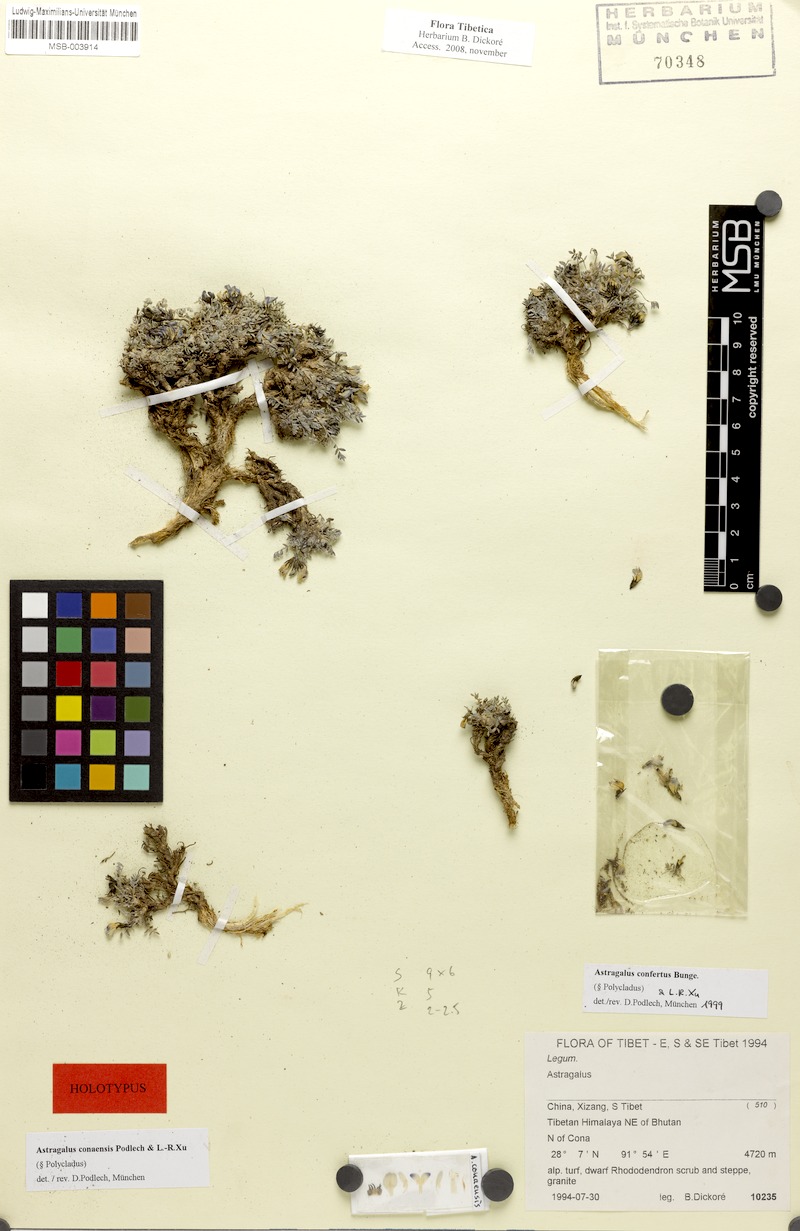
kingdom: Plantae
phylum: Tracheophyta
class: Magnoliopsida
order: Fabales
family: Fabaceae
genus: Astragalus
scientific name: Astragalus conaensis
